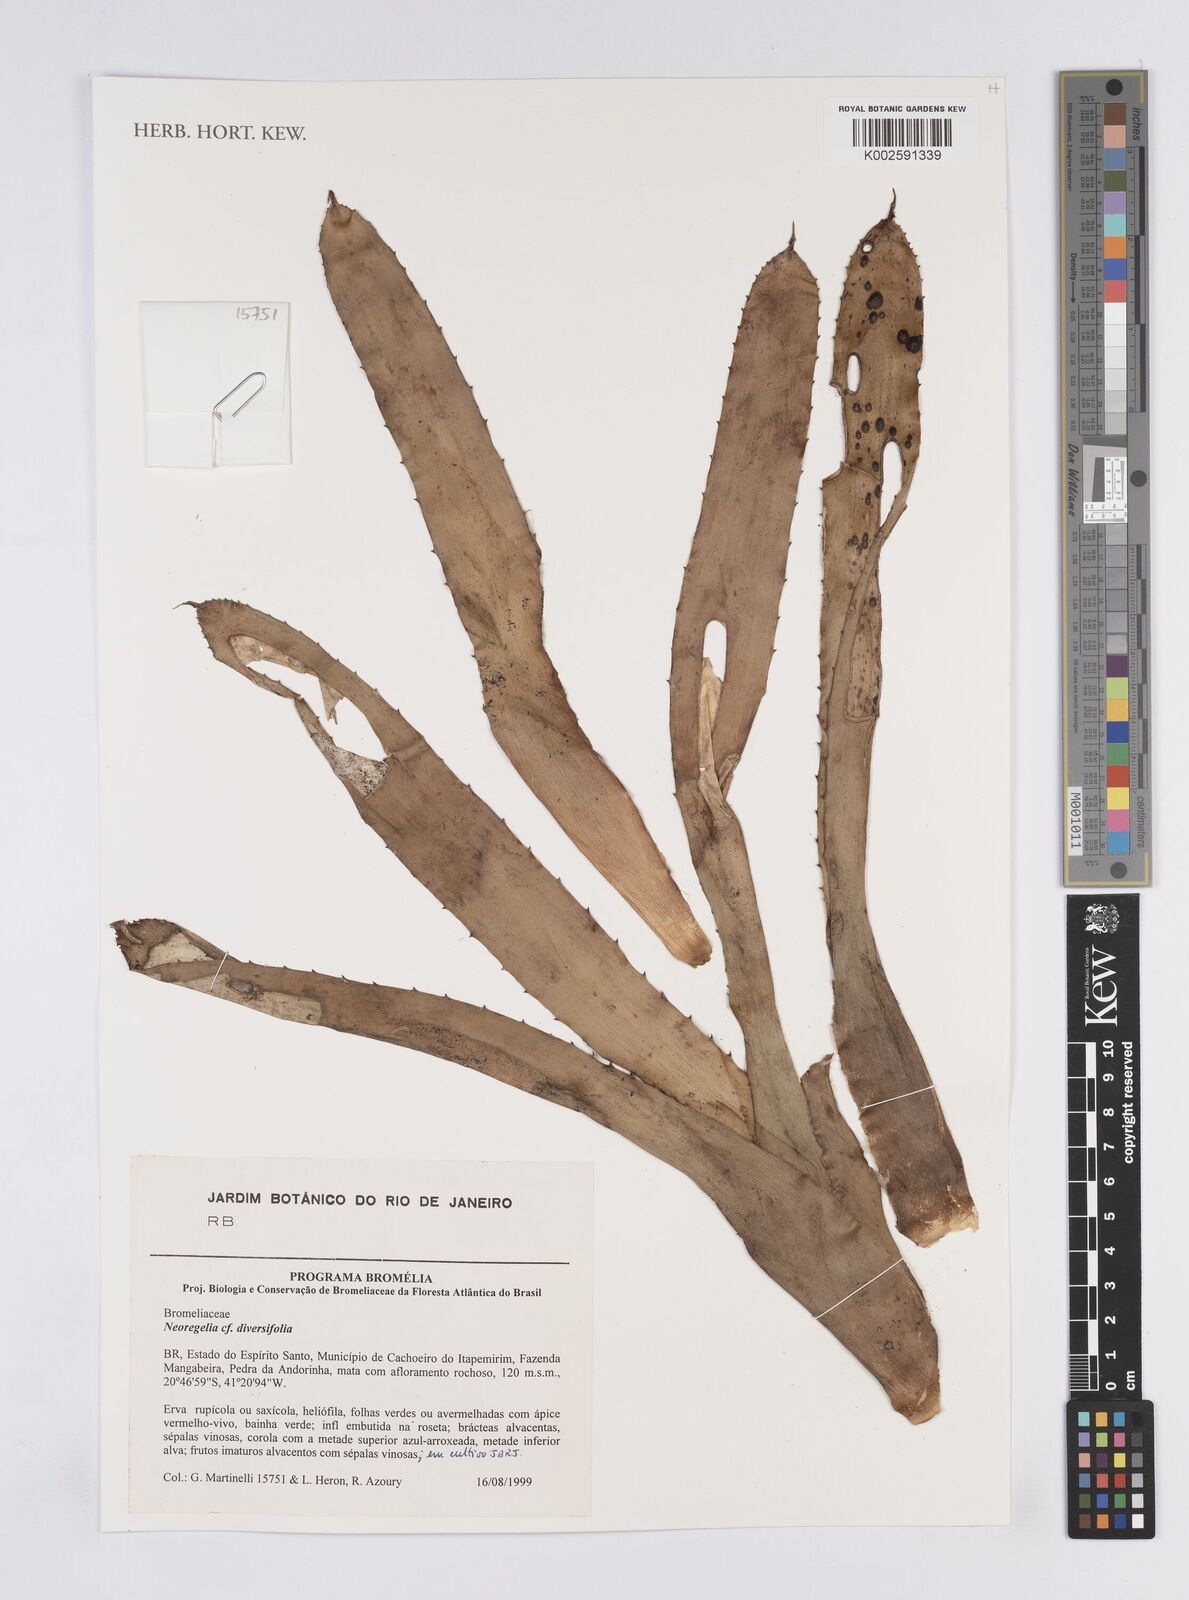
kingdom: Plantae
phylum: Tracheophyta
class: Liliopsida
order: Poales
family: Bromeliaceae
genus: Neoregelia
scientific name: Neoregelia diversifolia
